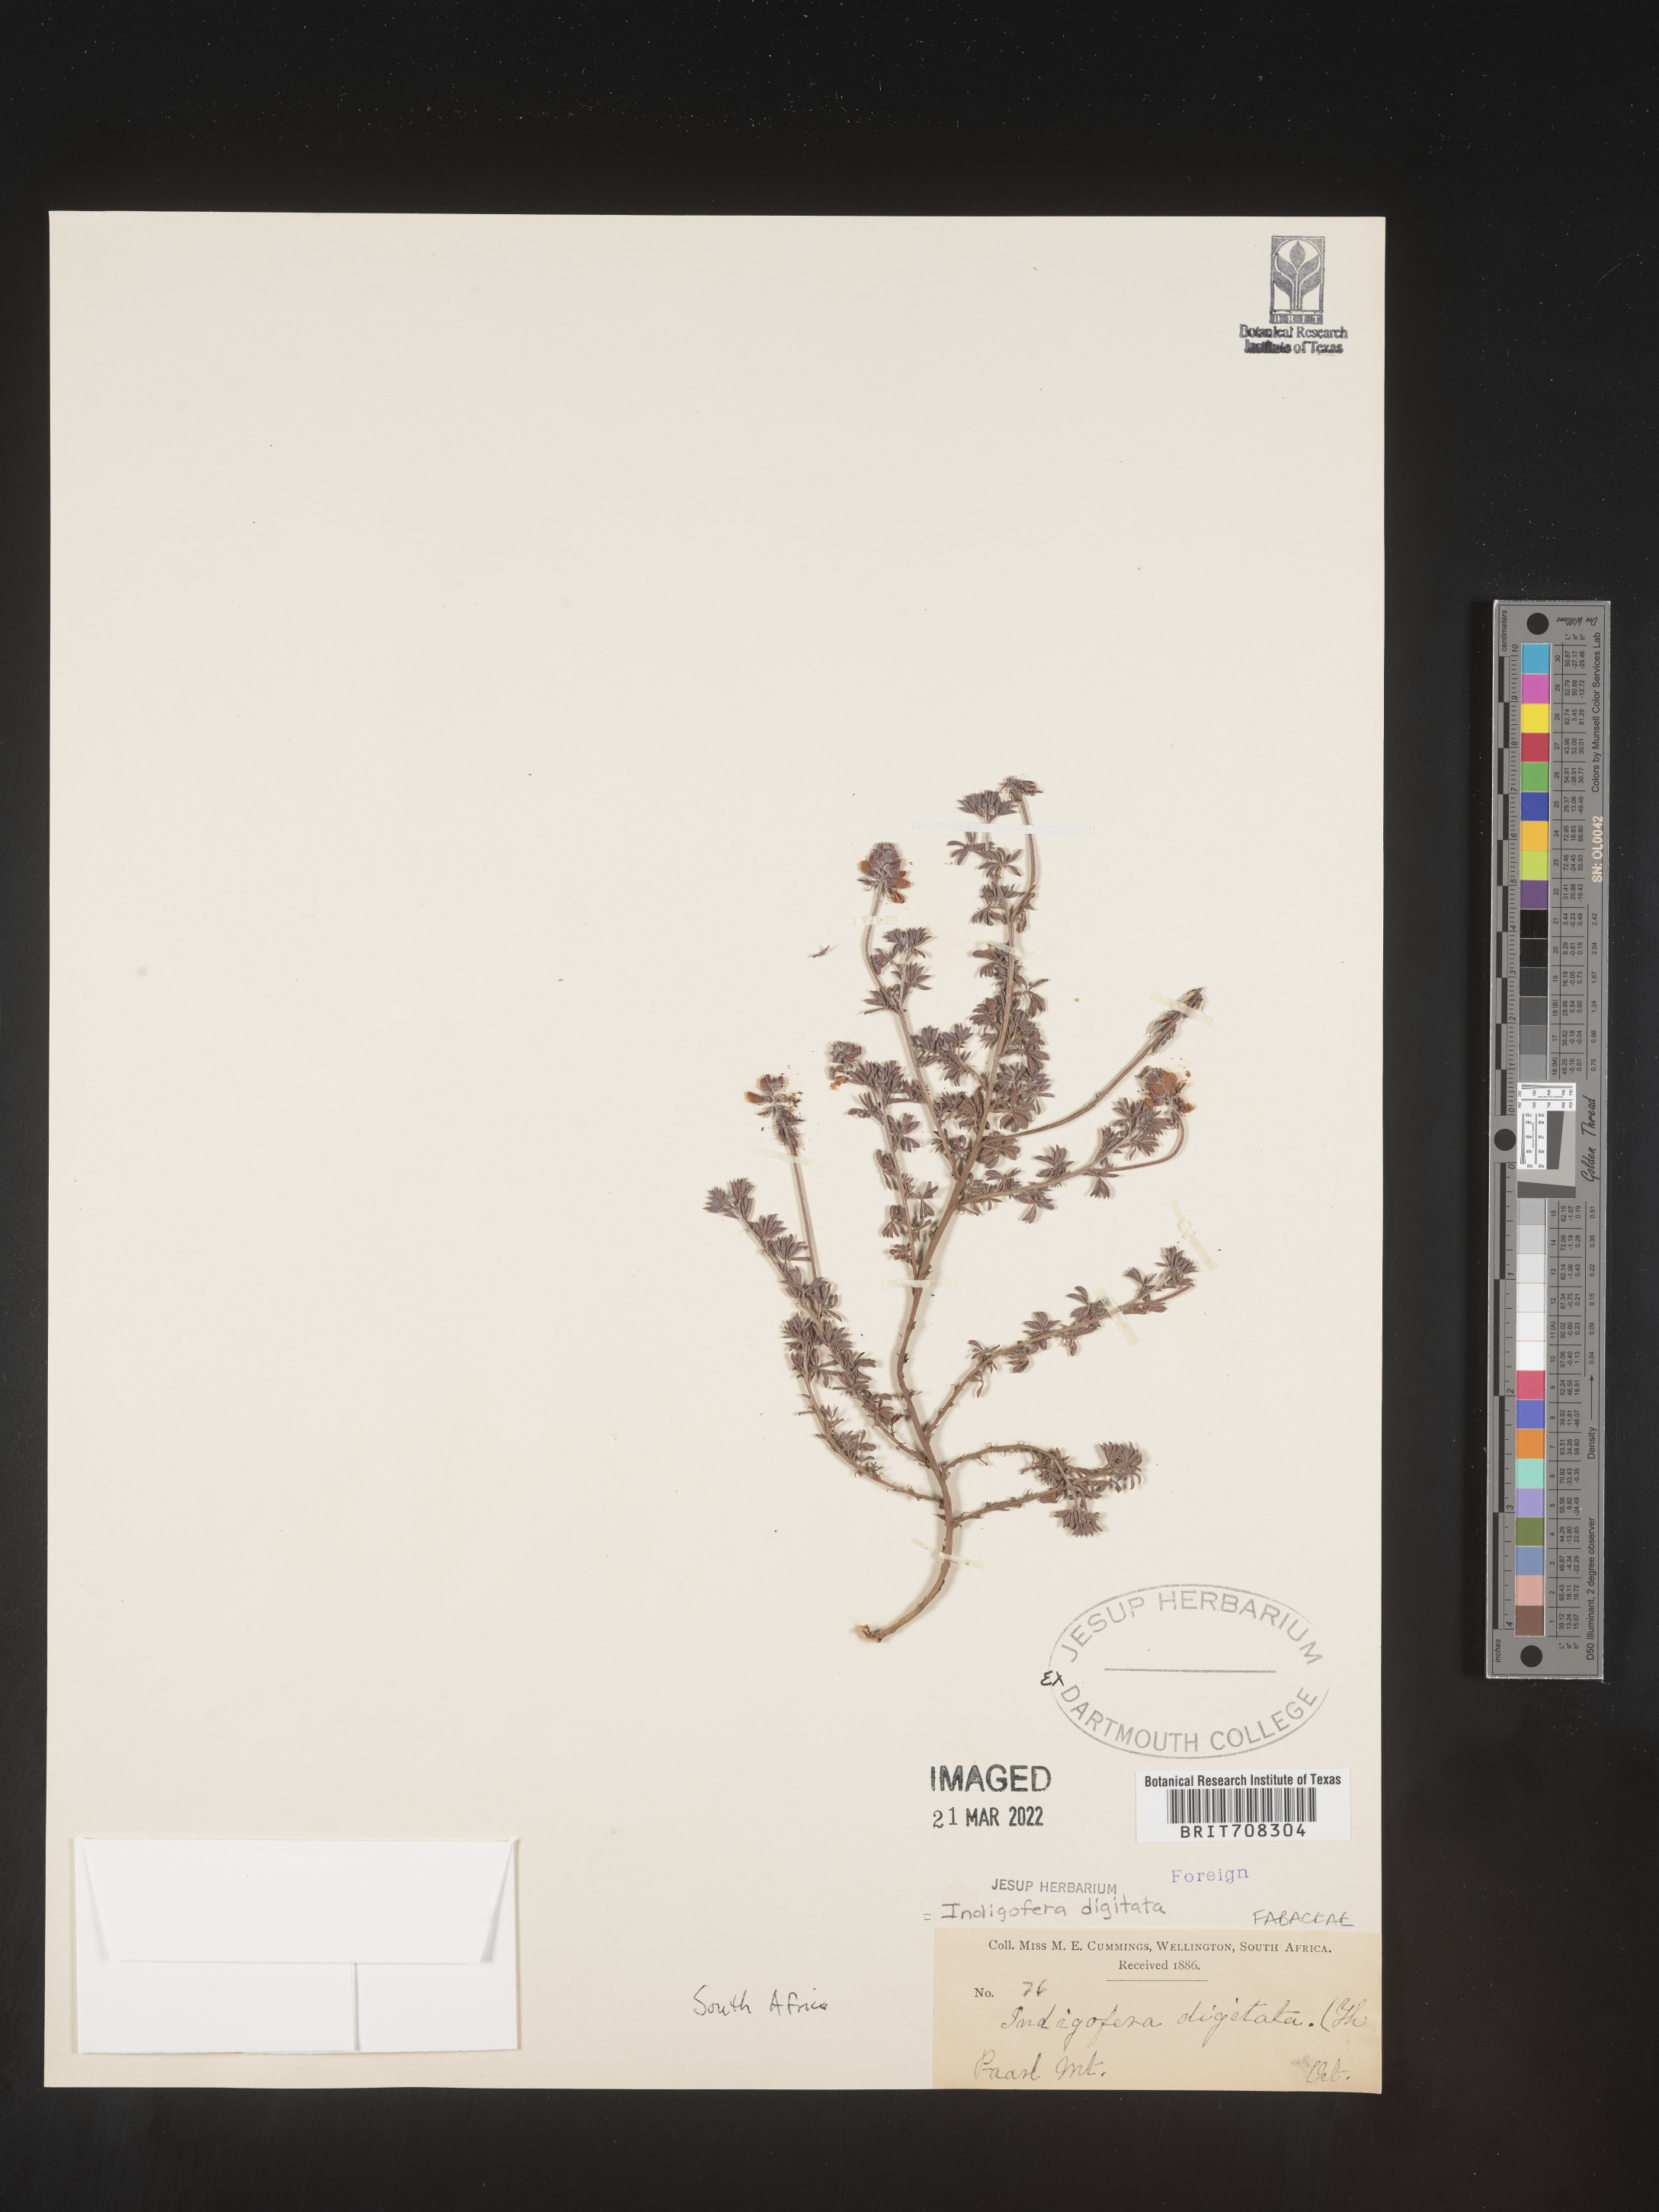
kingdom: Plantae
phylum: Tracheophyta
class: Magnoliopsida
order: Fabales
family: Fabaceae
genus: Indigofera
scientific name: Indigofera
